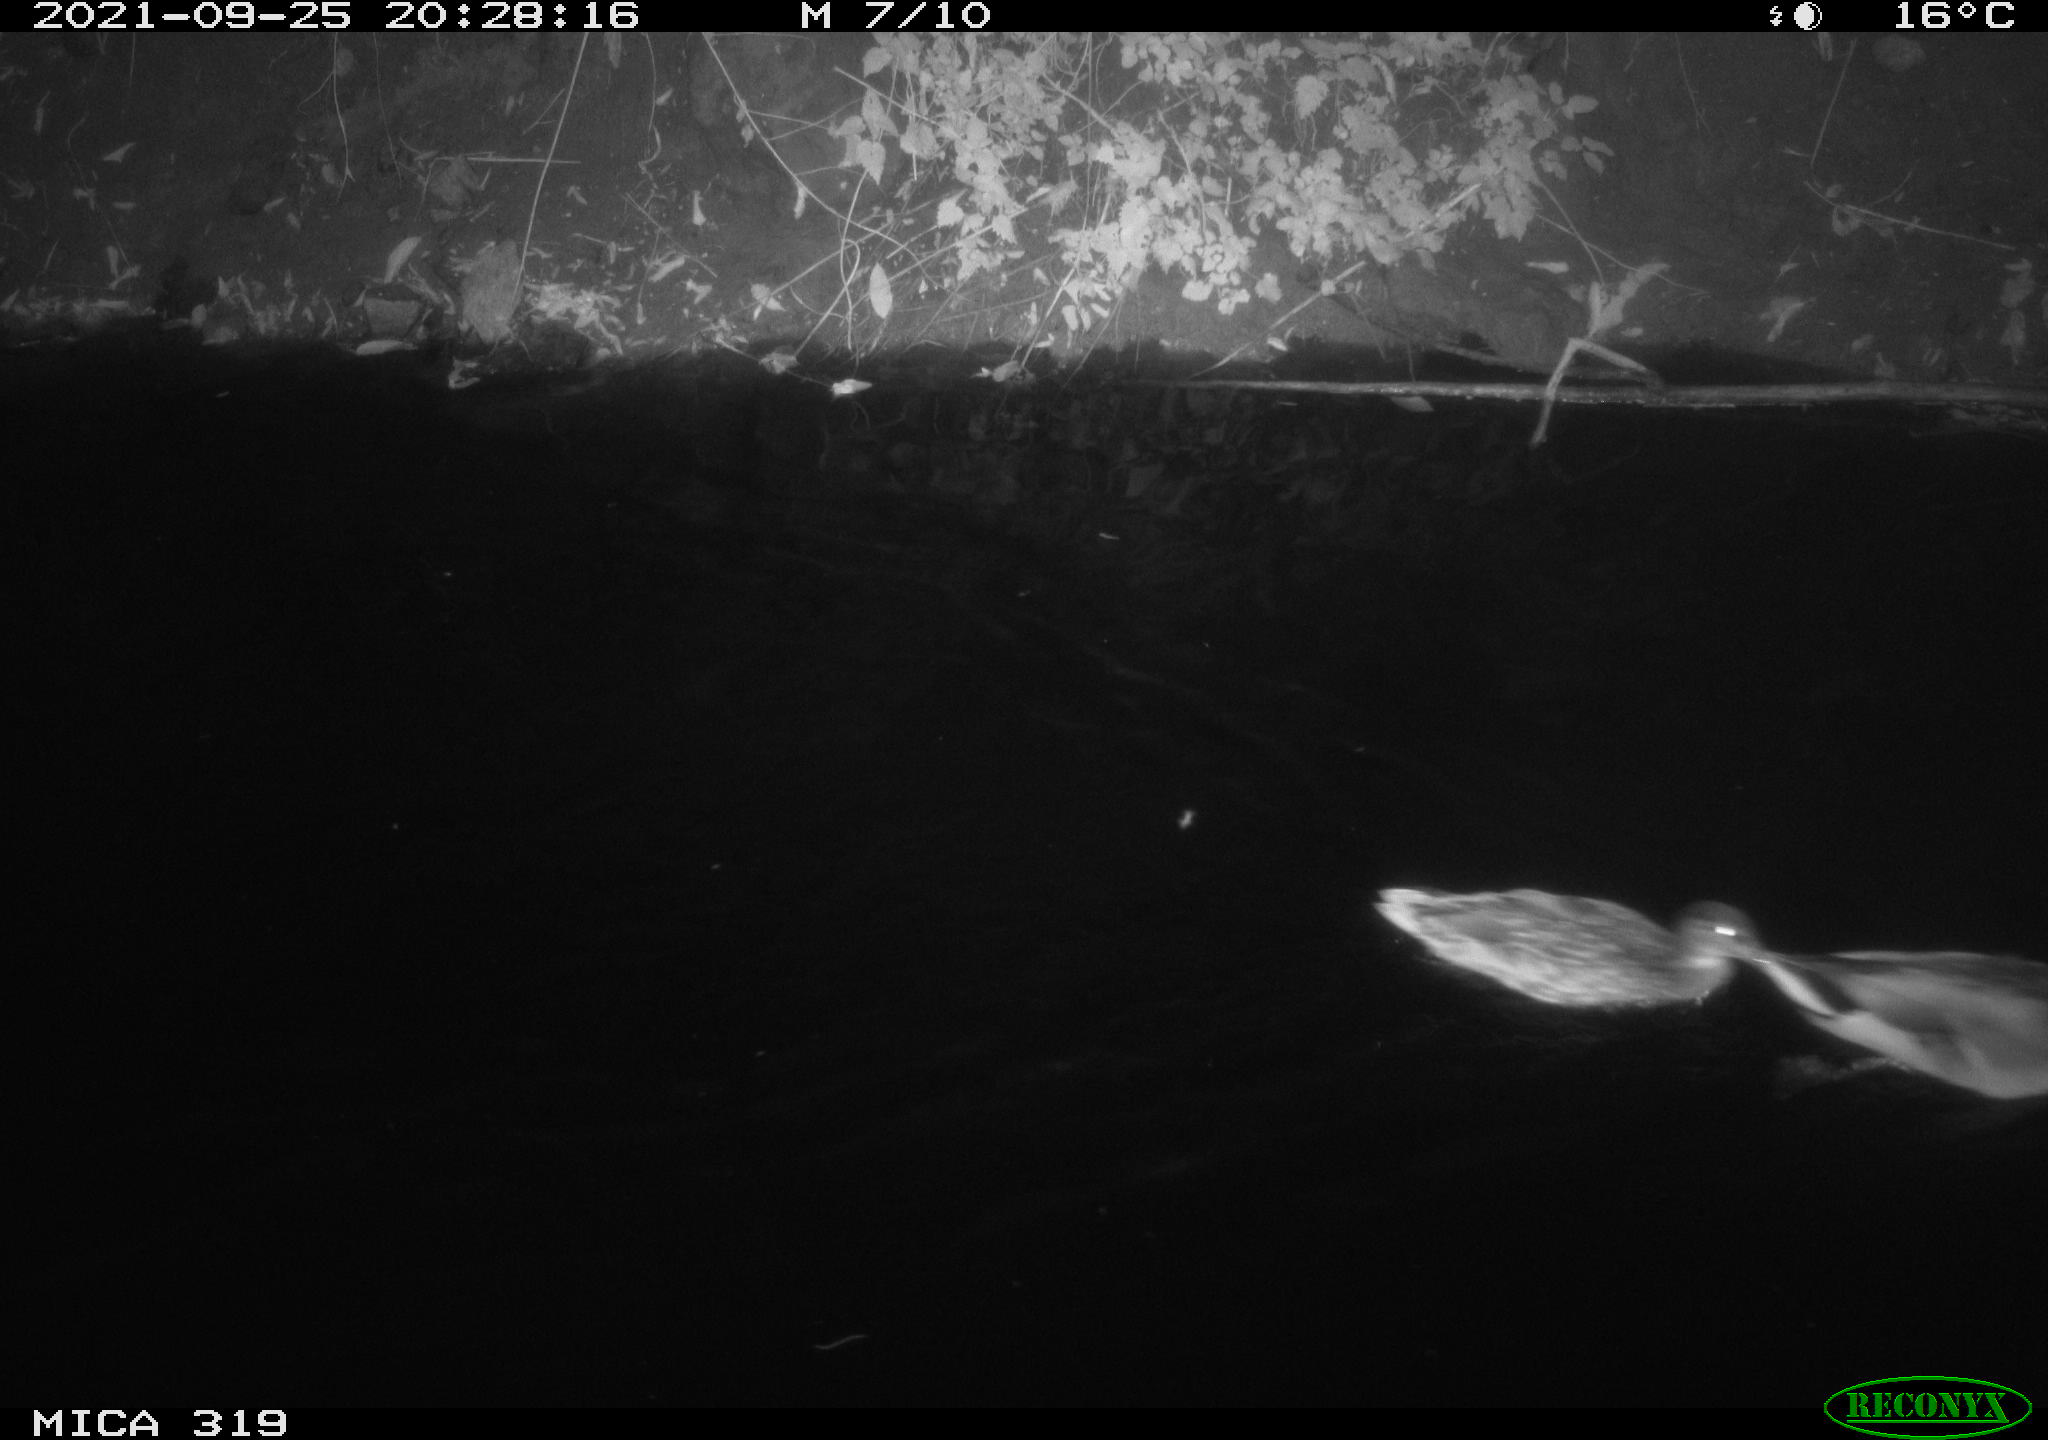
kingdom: Animalia
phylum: Chordata
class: Aves
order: Anseriformes
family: Anatidae
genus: Anas
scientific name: Anas platyrhynchos
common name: Mallard
